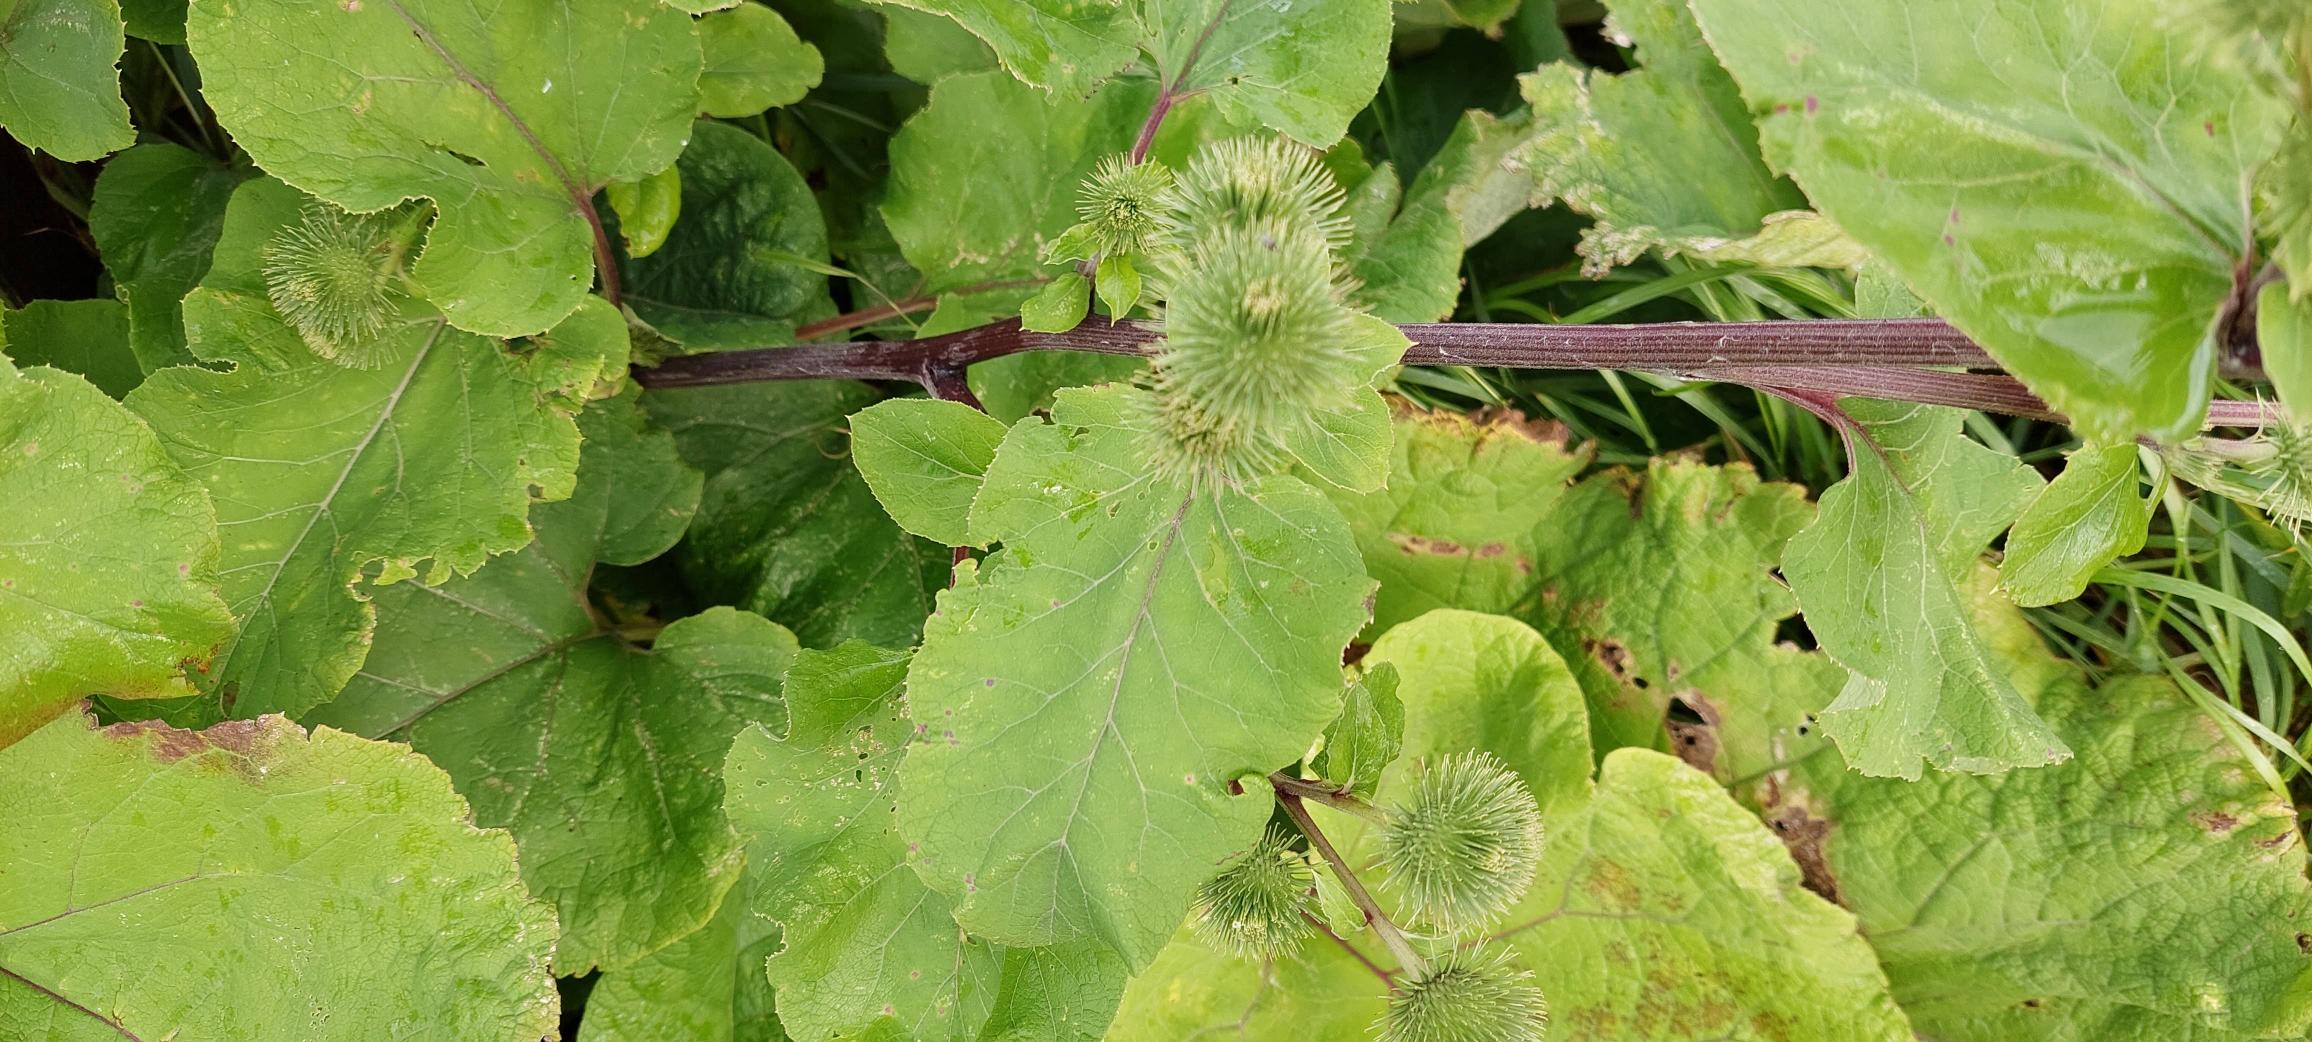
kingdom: Plantae
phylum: Tracheophyta
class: Magnoliopsida
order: Asterales
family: Asteraceae
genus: Arctium
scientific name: Arctium lappa
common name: Glat burre
